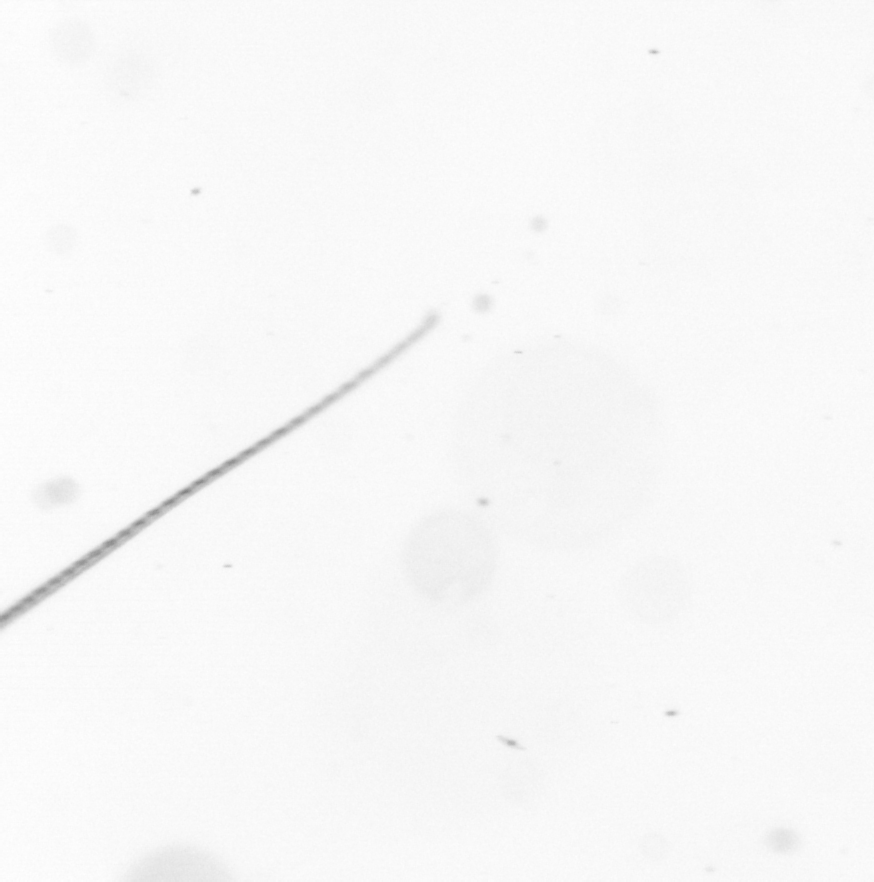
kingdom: Chromista
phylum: Ochrophyta
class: Bacillariophyceae
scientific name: Bacillariophyceae
